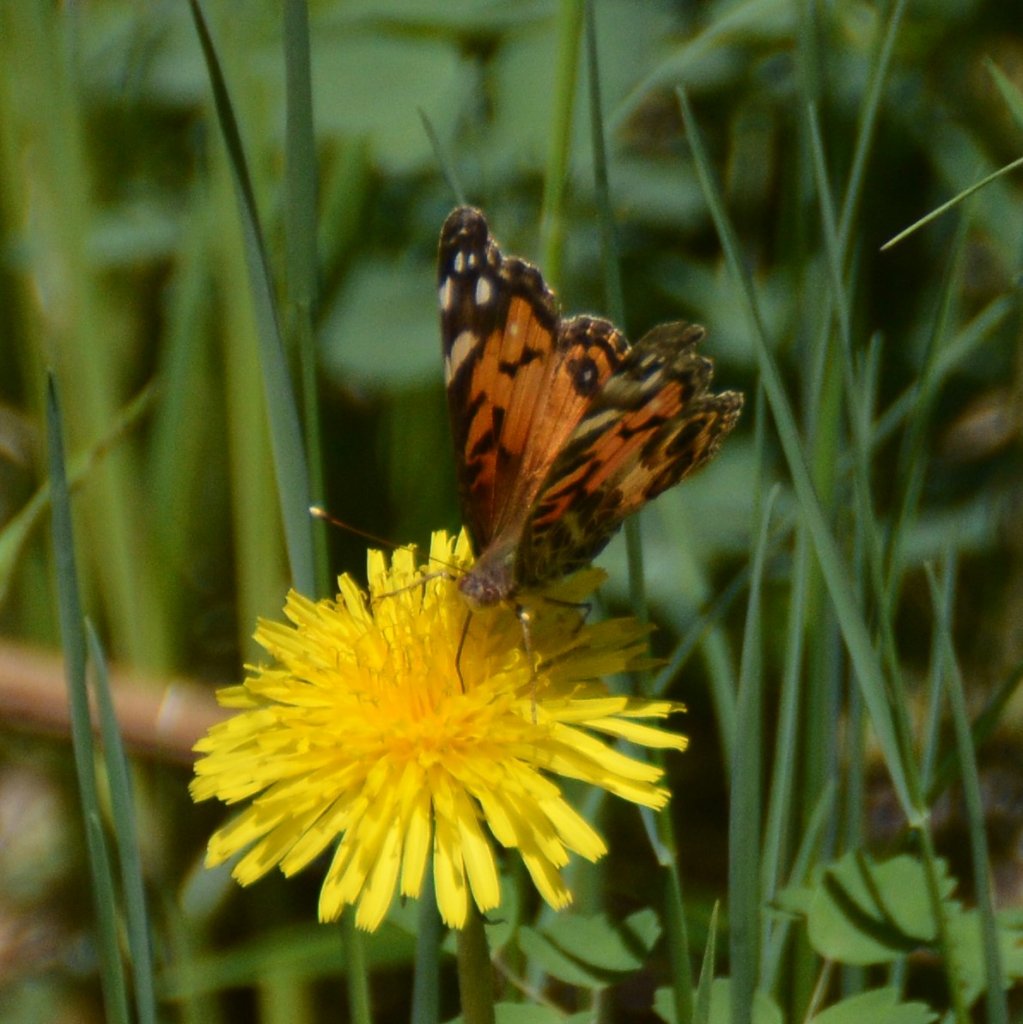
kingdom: Animalia
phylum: Arthropoda
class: Insecta
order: Lepidoptera
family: Nymphalidae
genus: Vanessa
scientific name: Vanessa virginiensis
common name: American Lady
